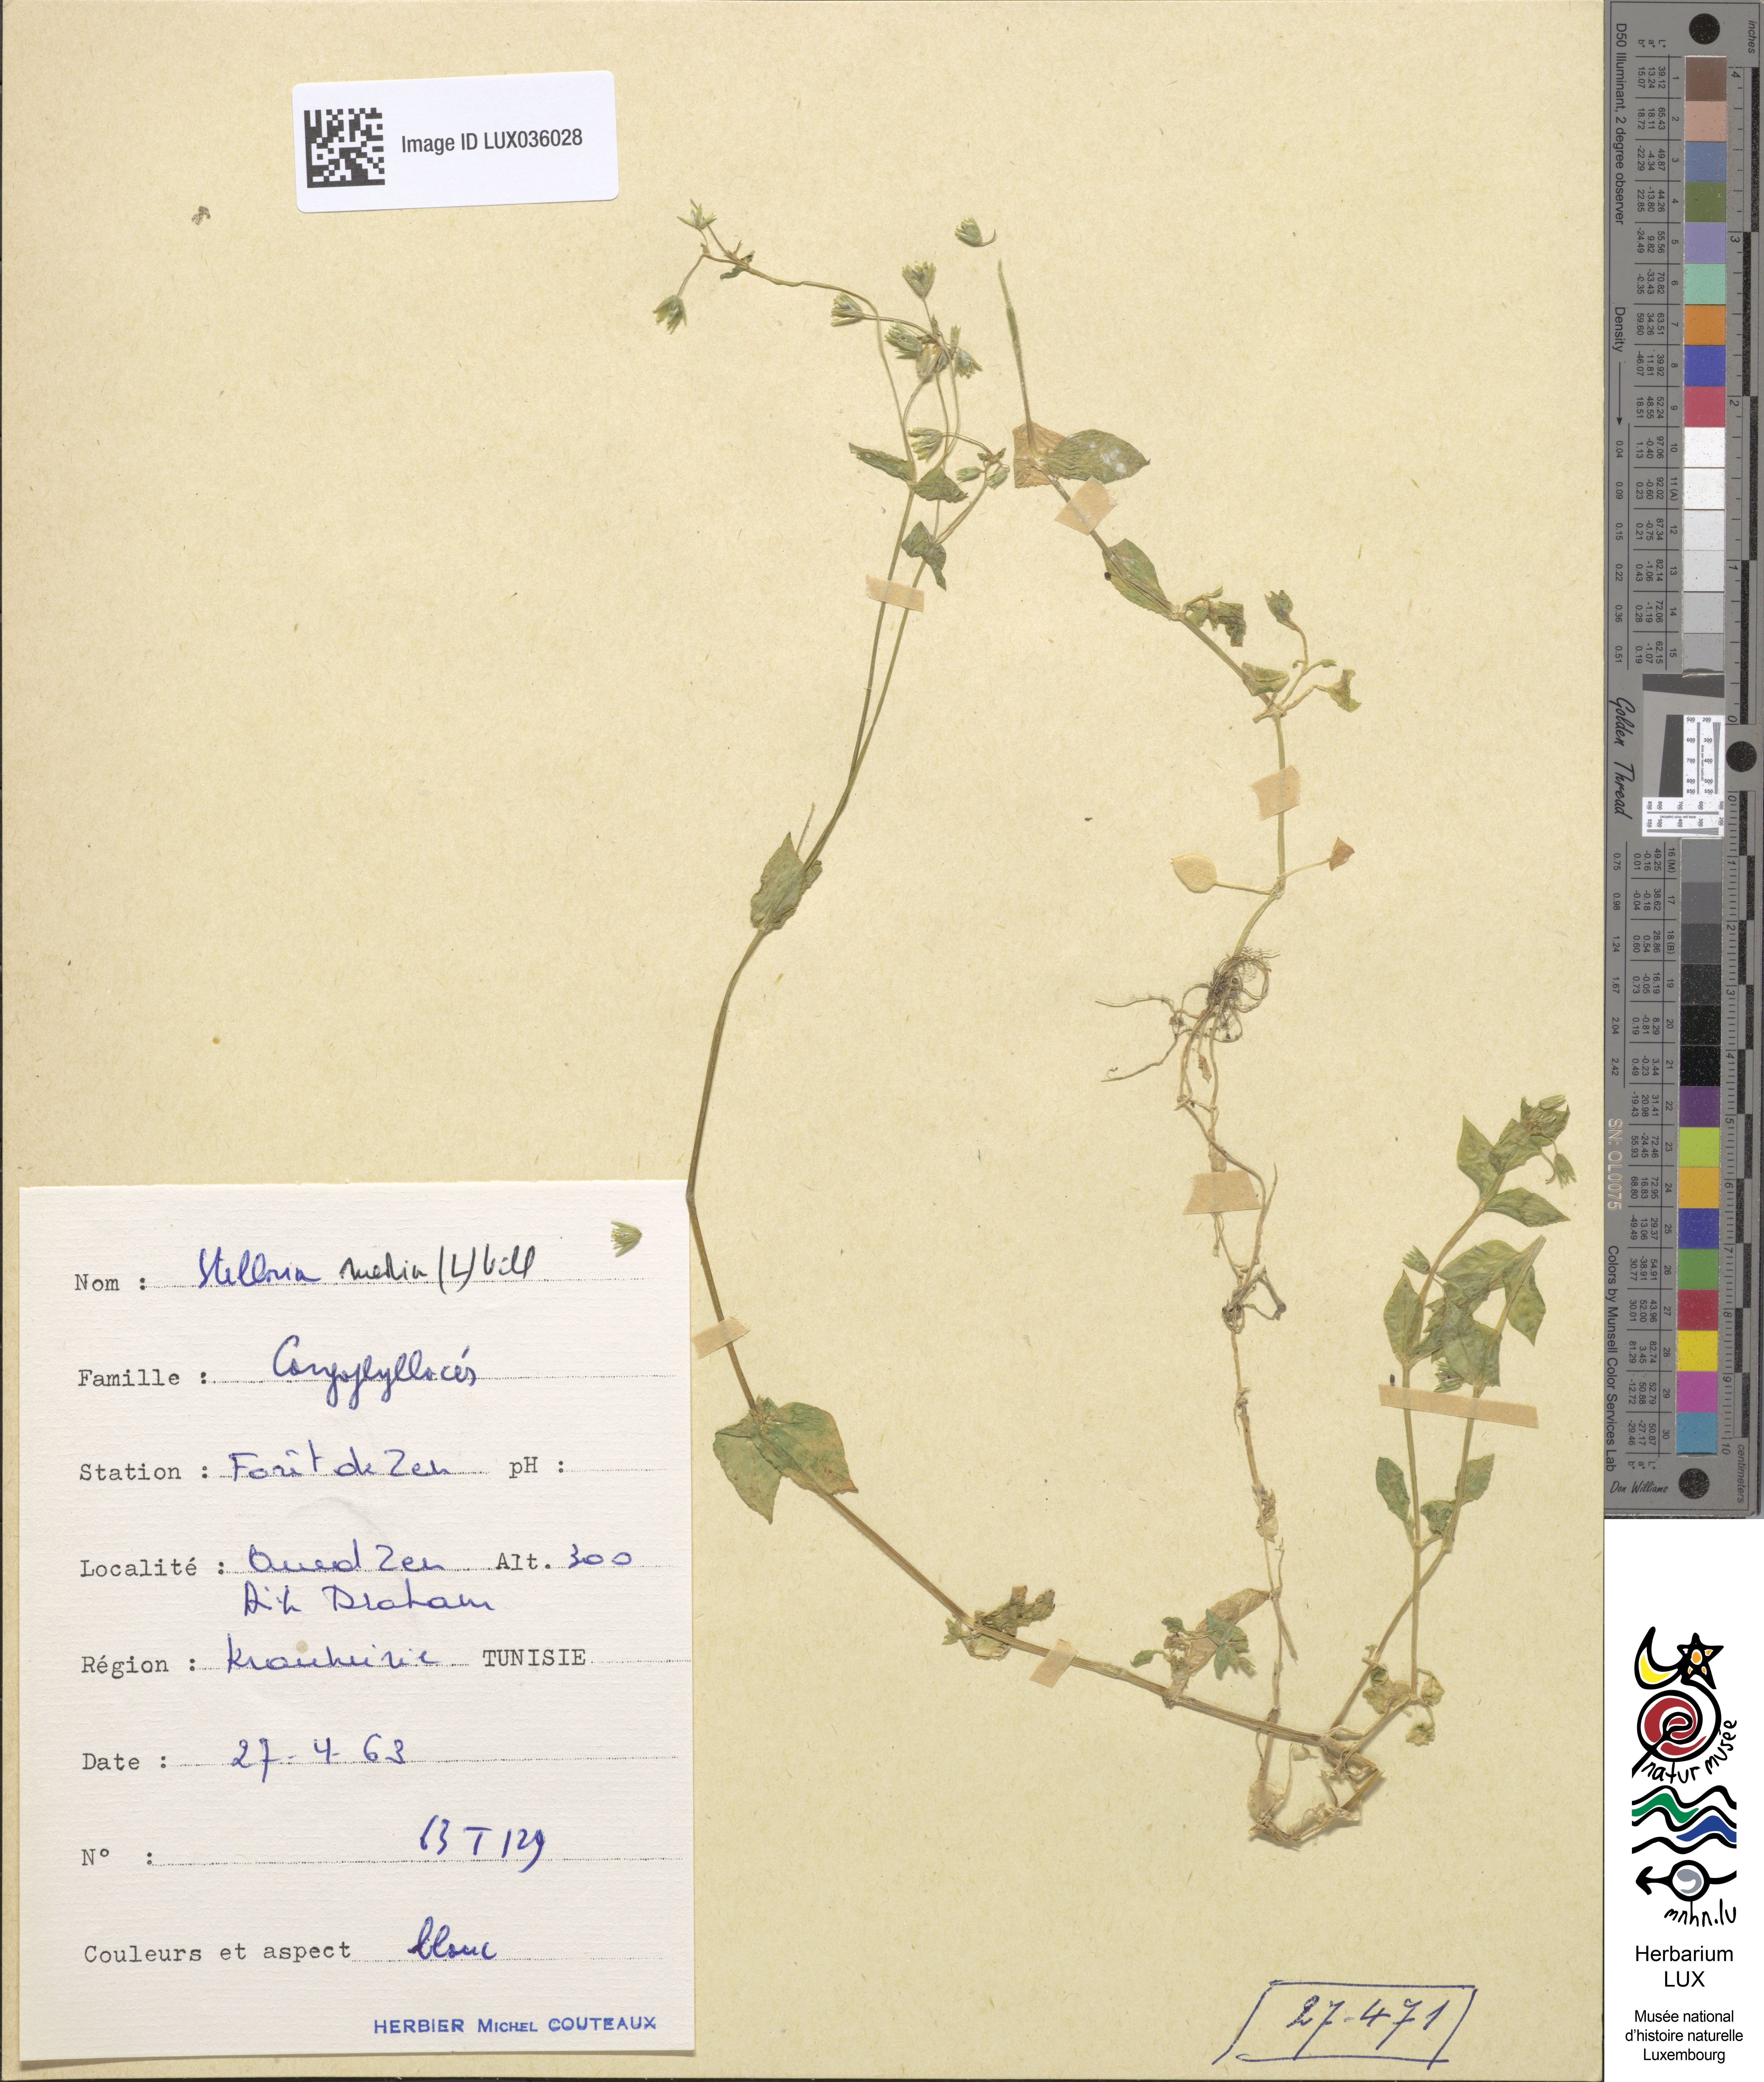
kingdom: Plantae
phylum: Tracheophyta
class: Magnoliopsida
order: Caryophyllales
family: Caryophyllaceae
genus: Stellaria
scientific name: Stellaria media
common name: Common chickweed
